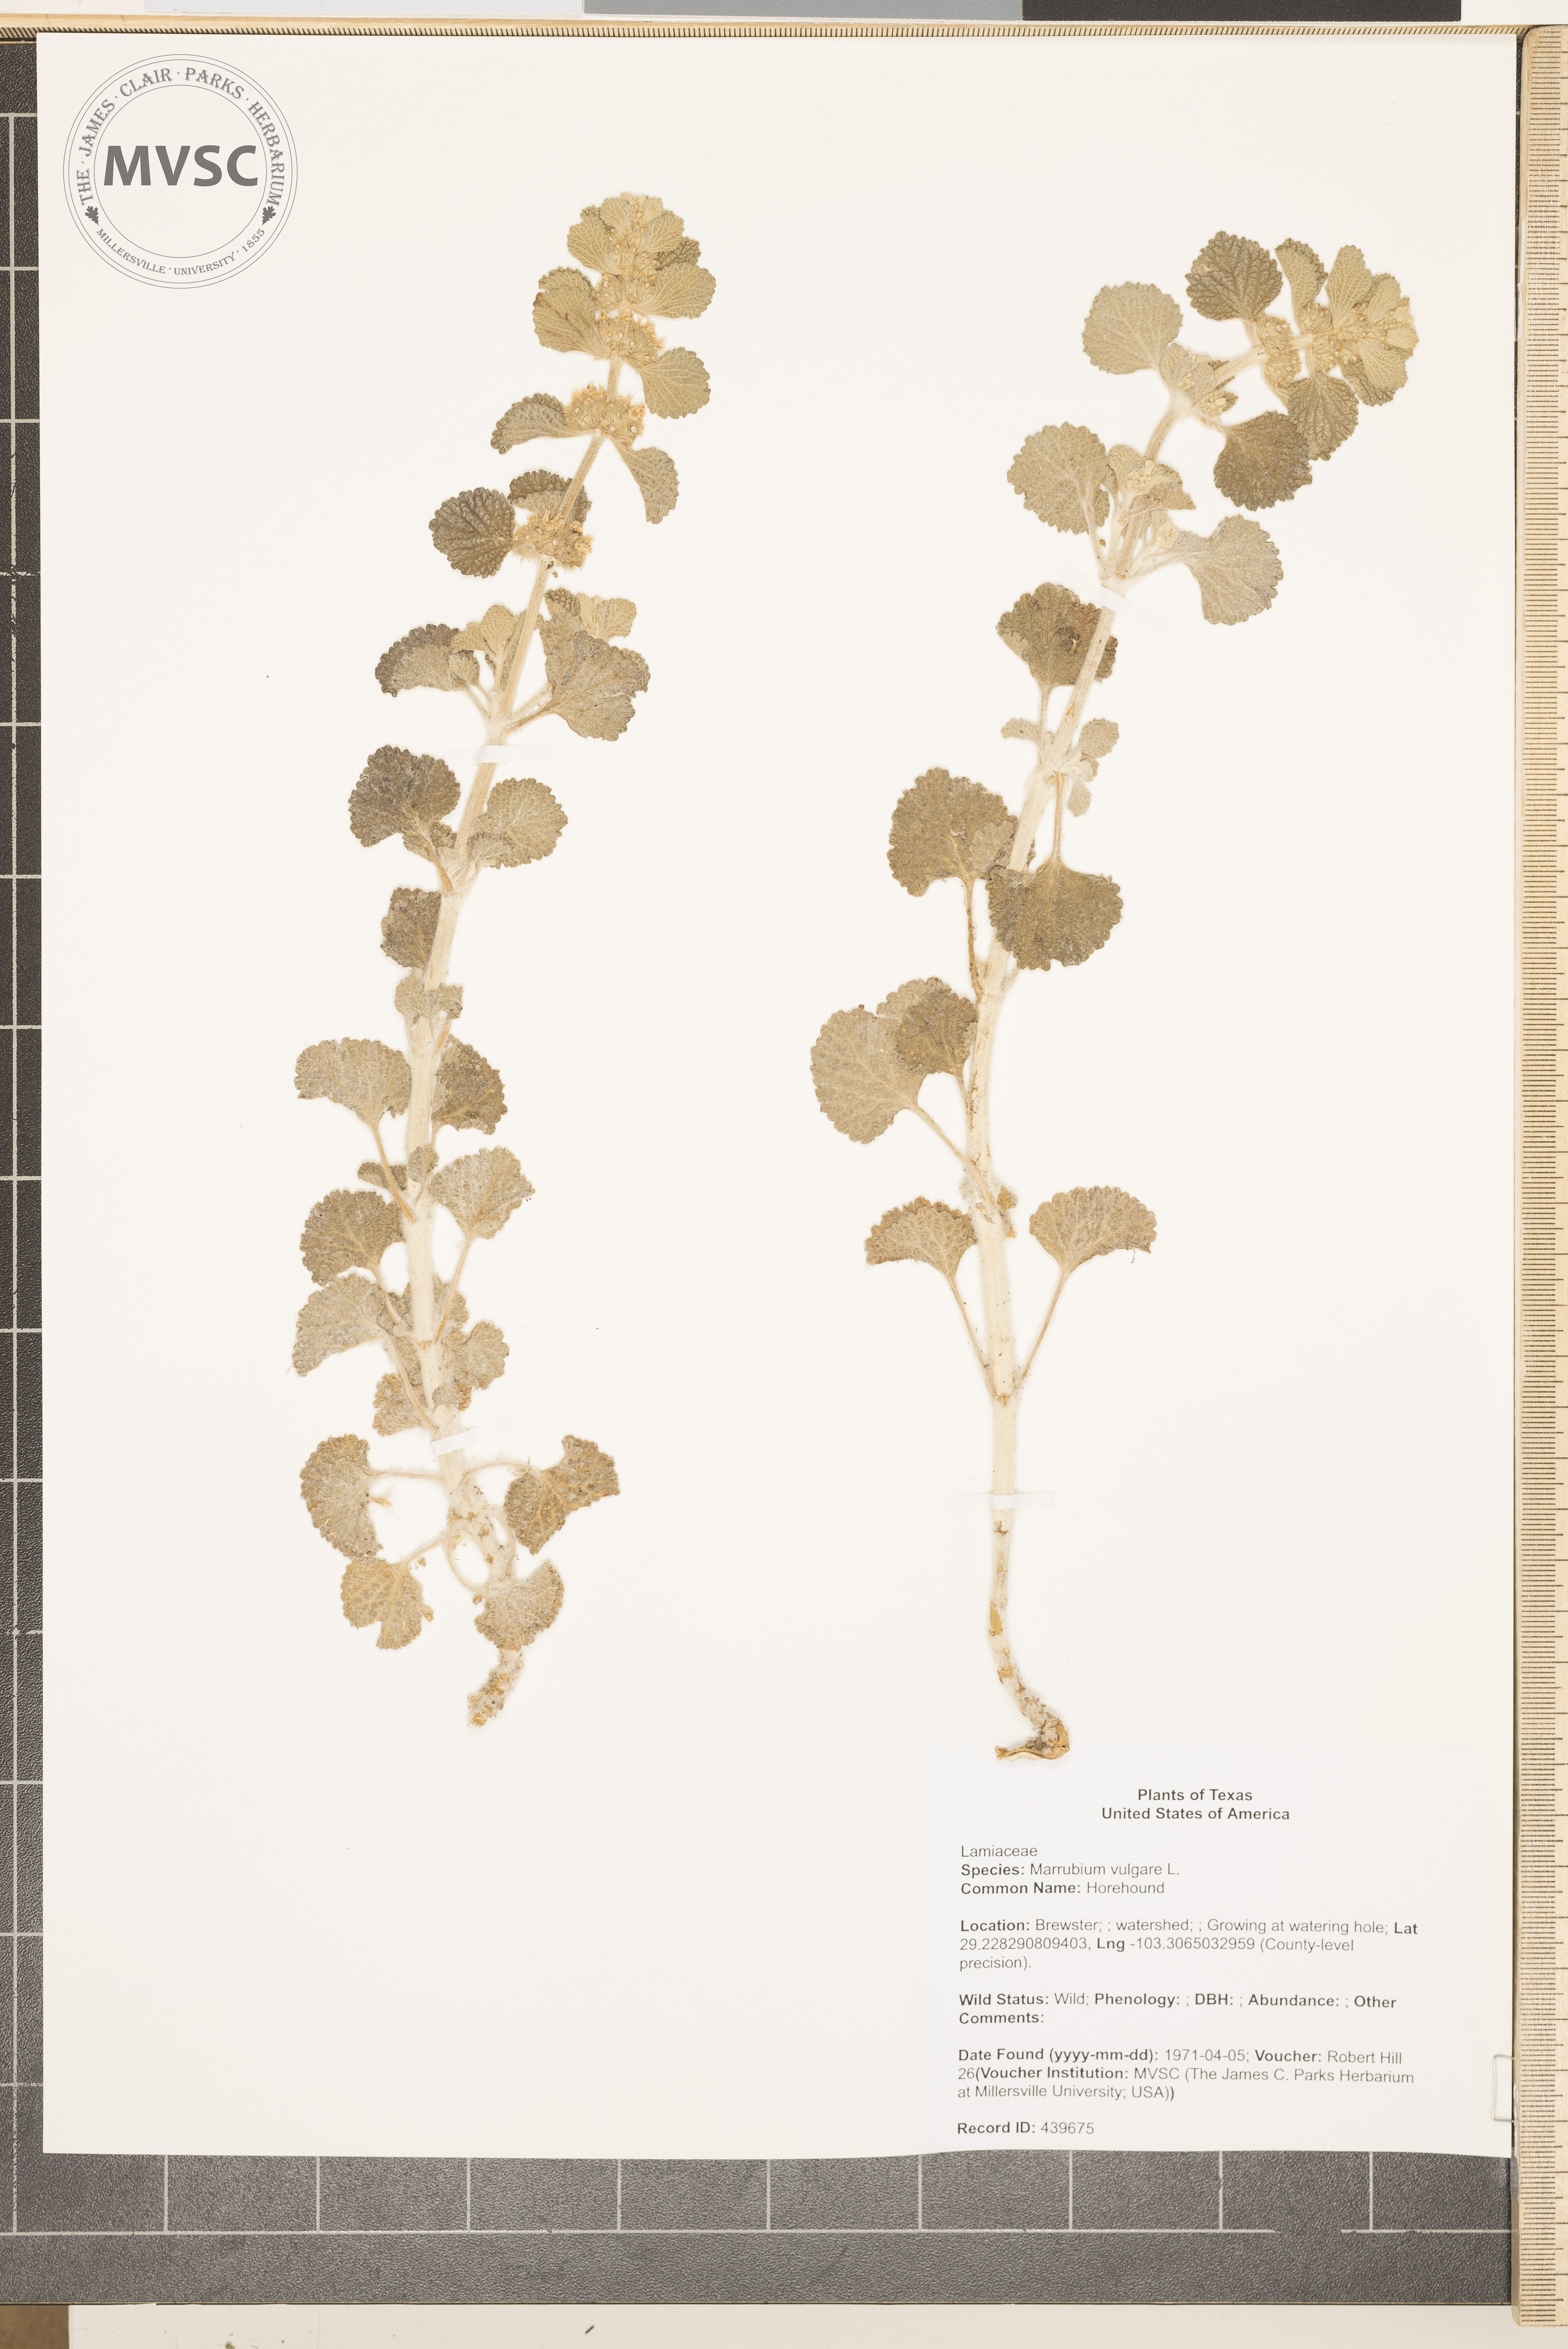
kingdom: Plantae
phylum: Tracheophyta
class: Magnoliopsida
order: Lamiales
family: Lamiaceae
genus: Marrubium
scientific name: Marrubium vulgare
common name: Horehound
